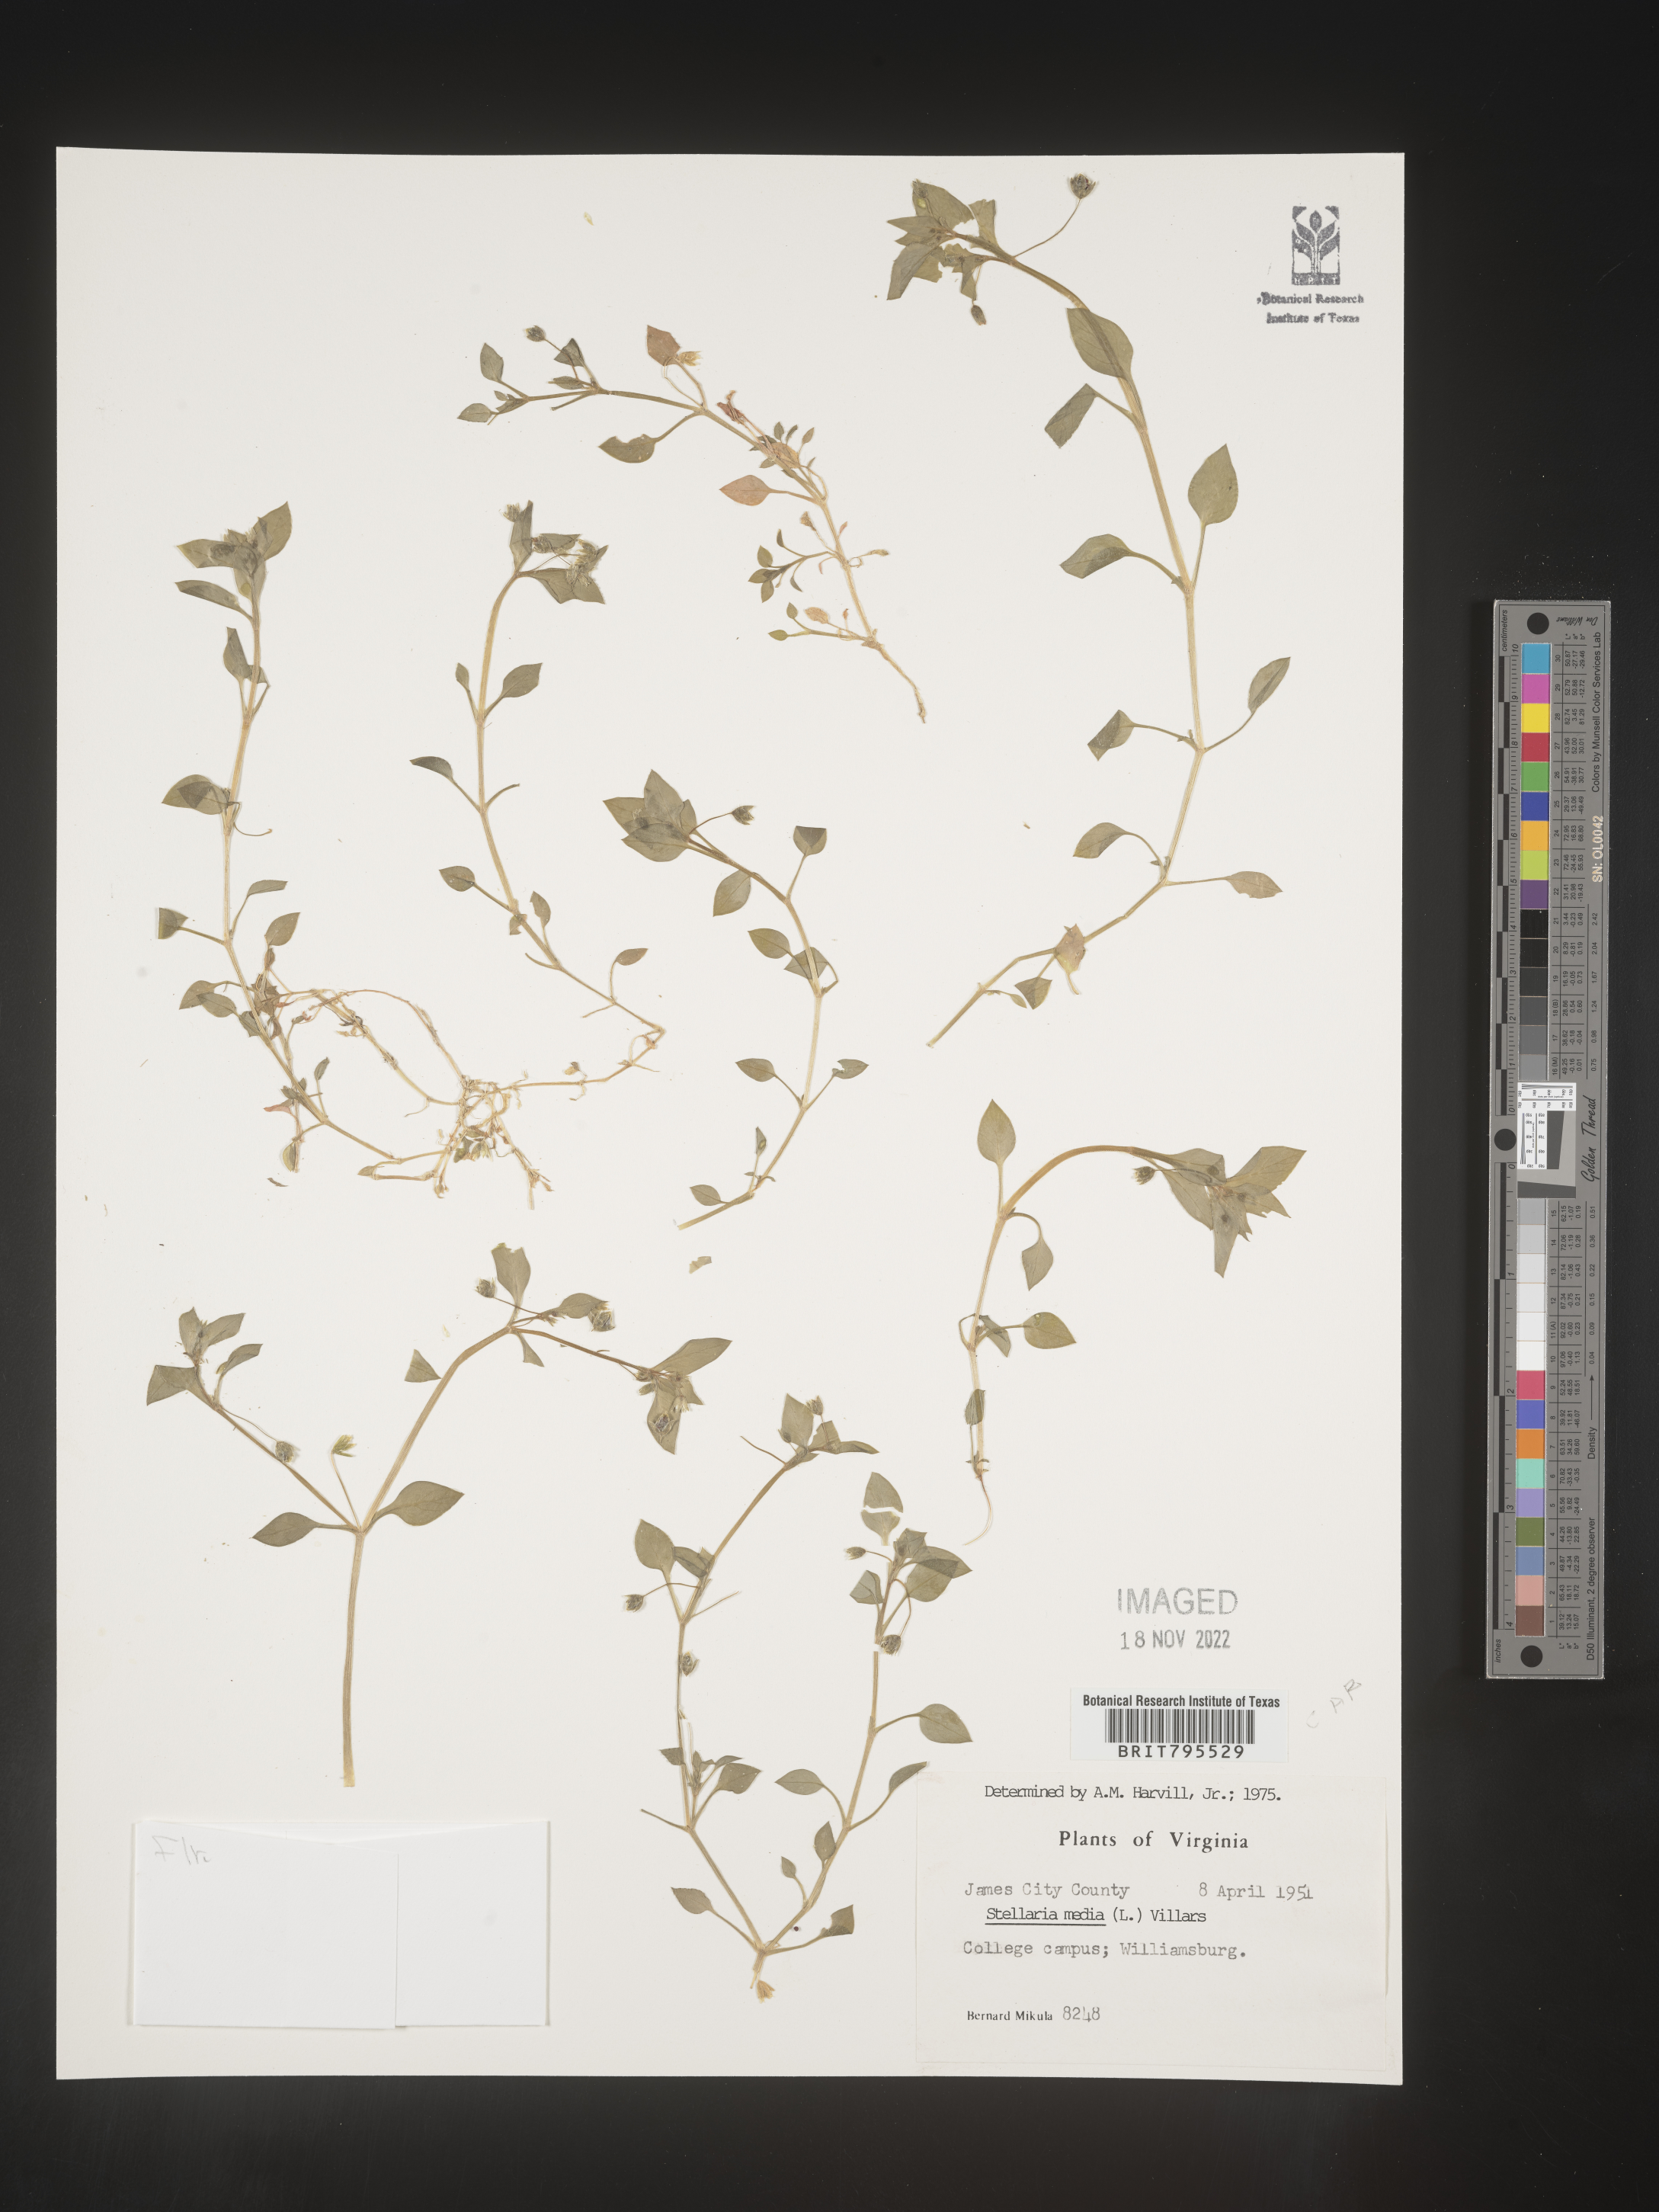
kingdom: Plantae
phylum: Tracheophyta
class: Magnoliopsida
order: Caryophyllales
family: Caryophyllaceae
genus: Stellaria
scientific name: Stellaria media
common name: Common chickweed
